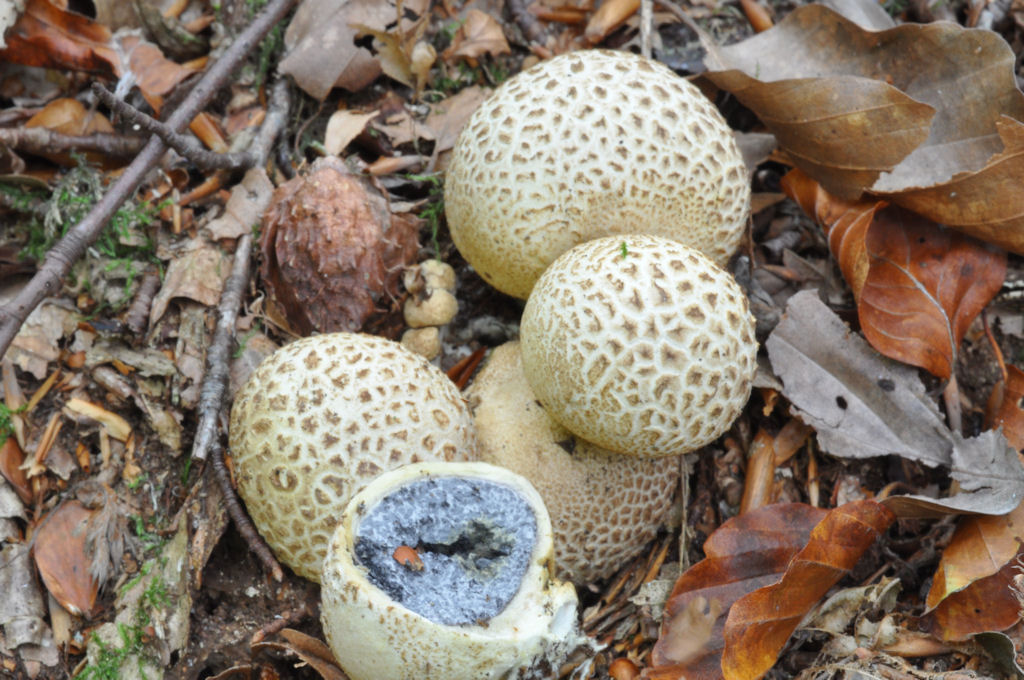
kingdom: Fungi
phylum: Basidiomycota
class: Agaricomycetes
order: Boletales
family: Sclerodermataceae
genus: Scleroderma
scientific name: Scleroderma citrinum
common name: almindelig bruskbold
